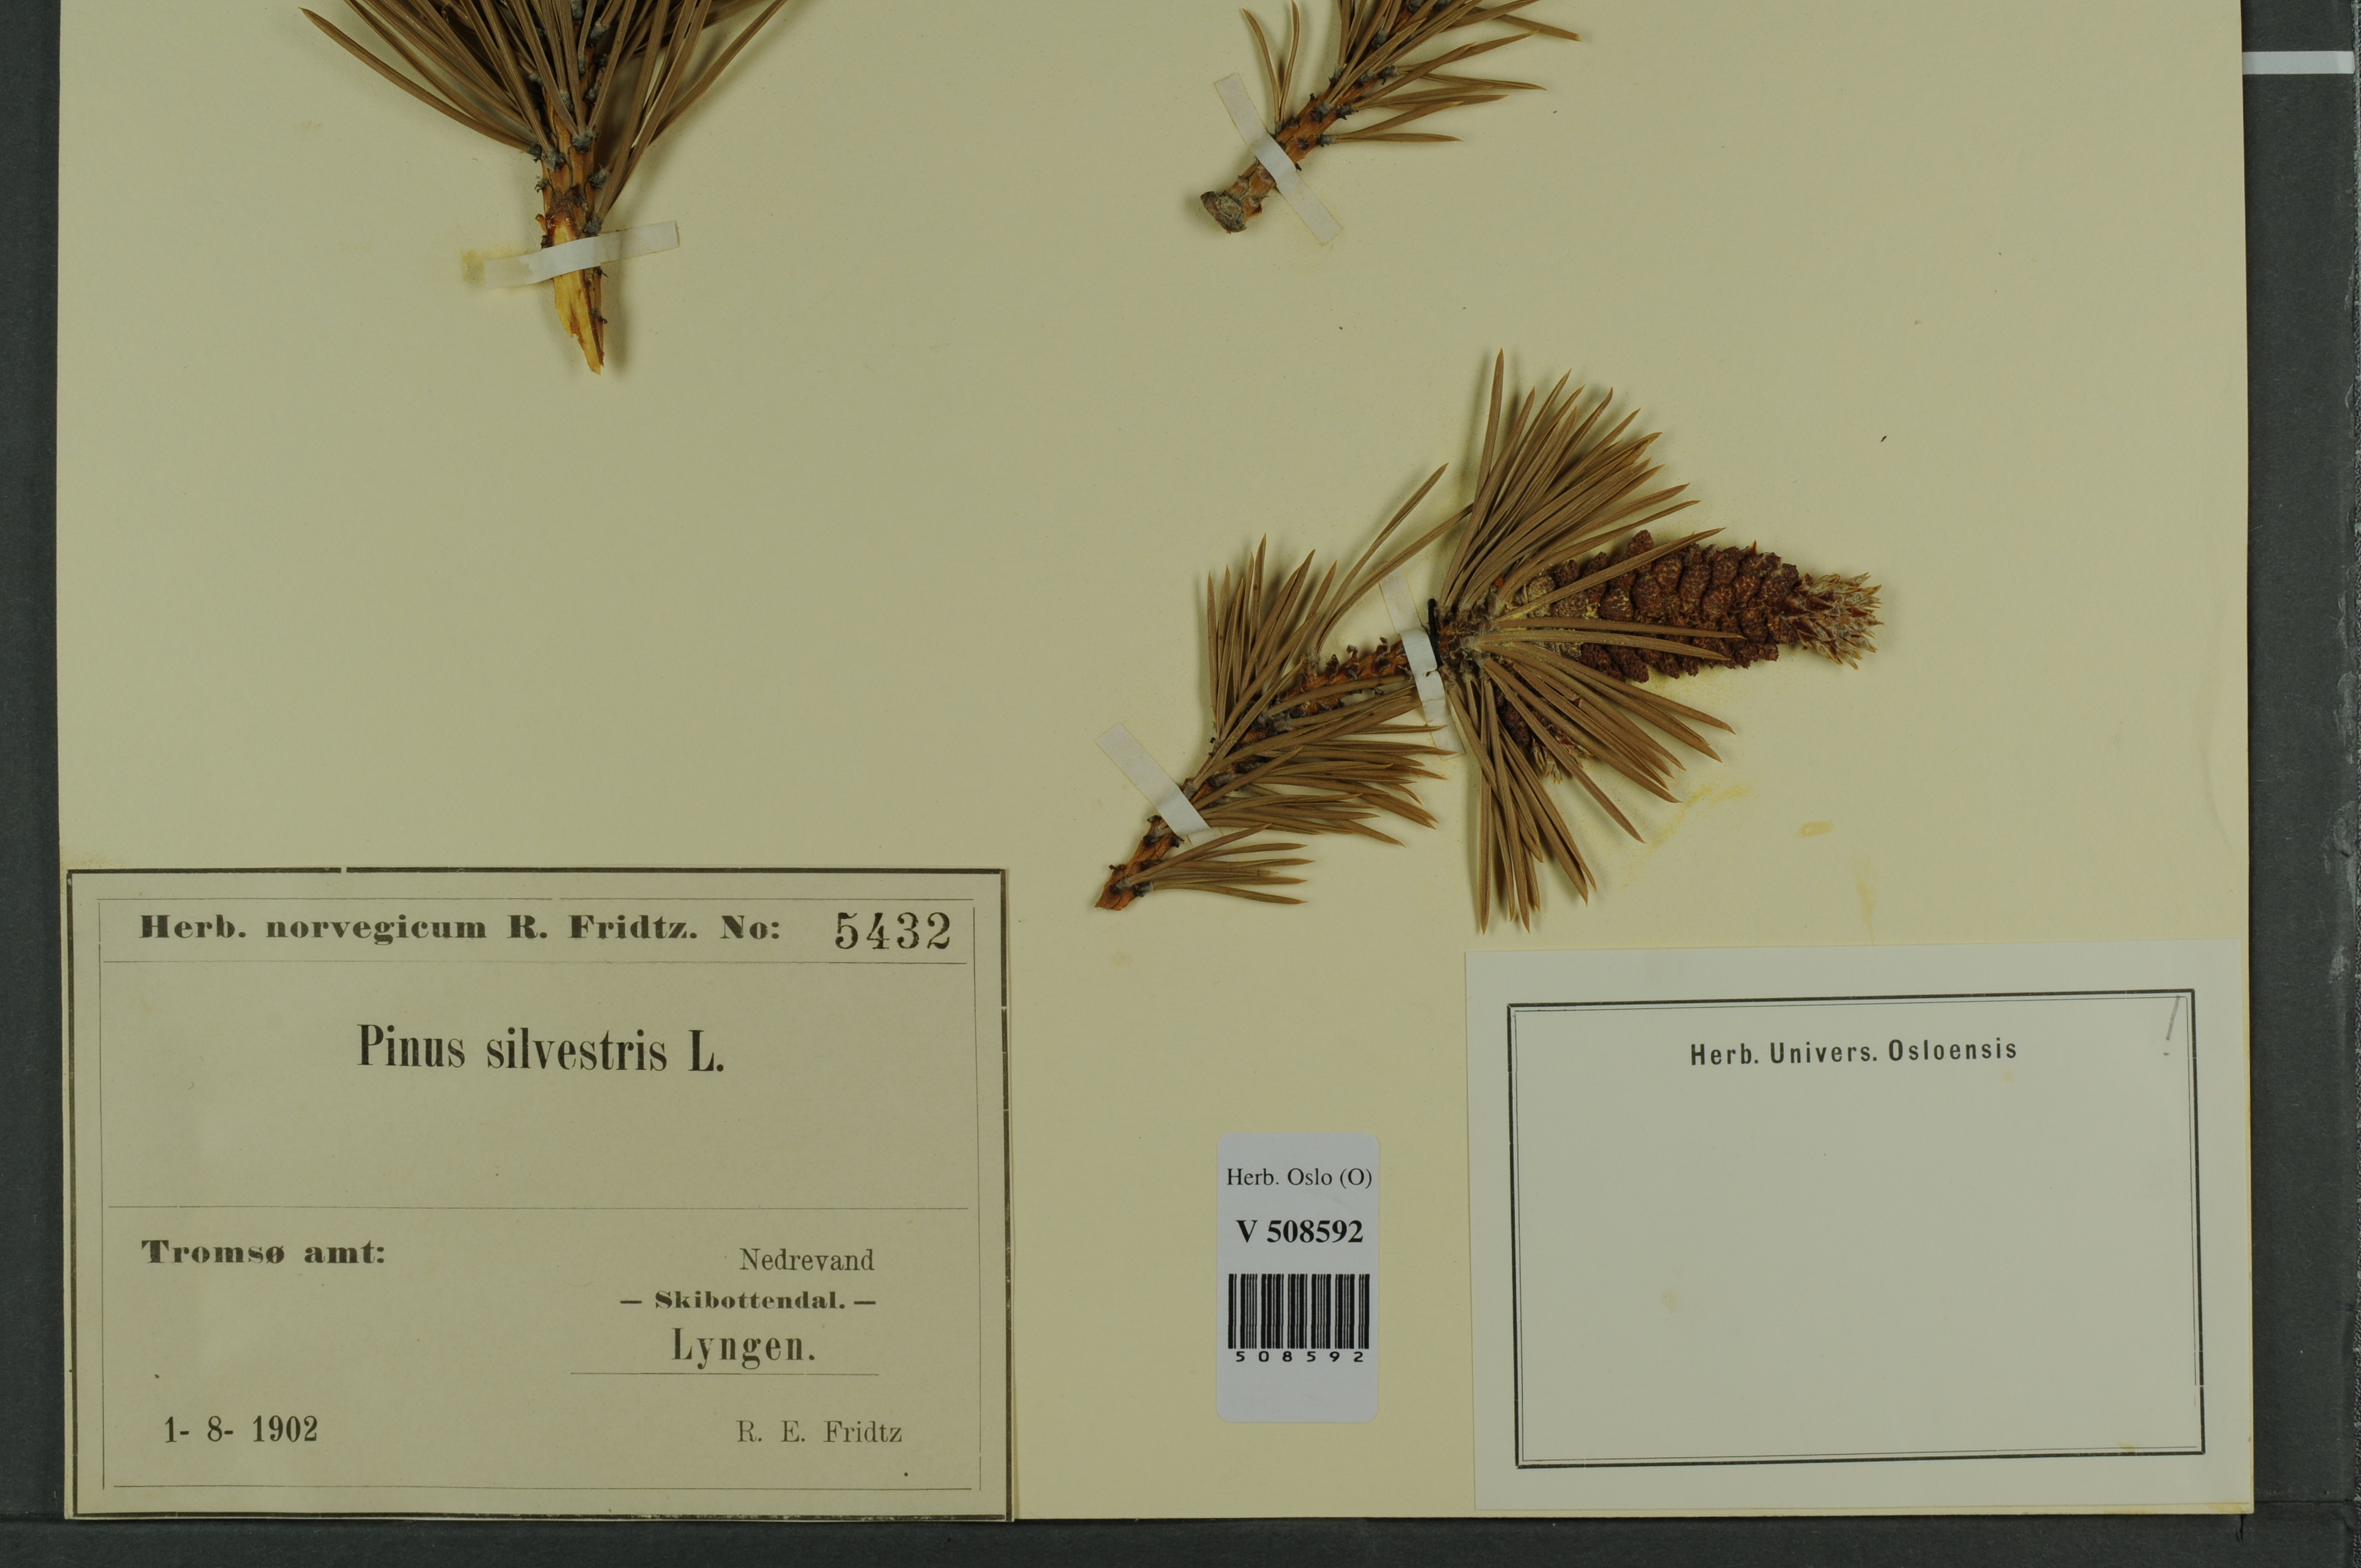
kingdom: Plantae
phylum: Tracheophyta
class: Pinopsida
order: Pinales
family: Pinaceae
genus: Pinus
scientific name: Pinus sylvestris
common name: Scots pine
